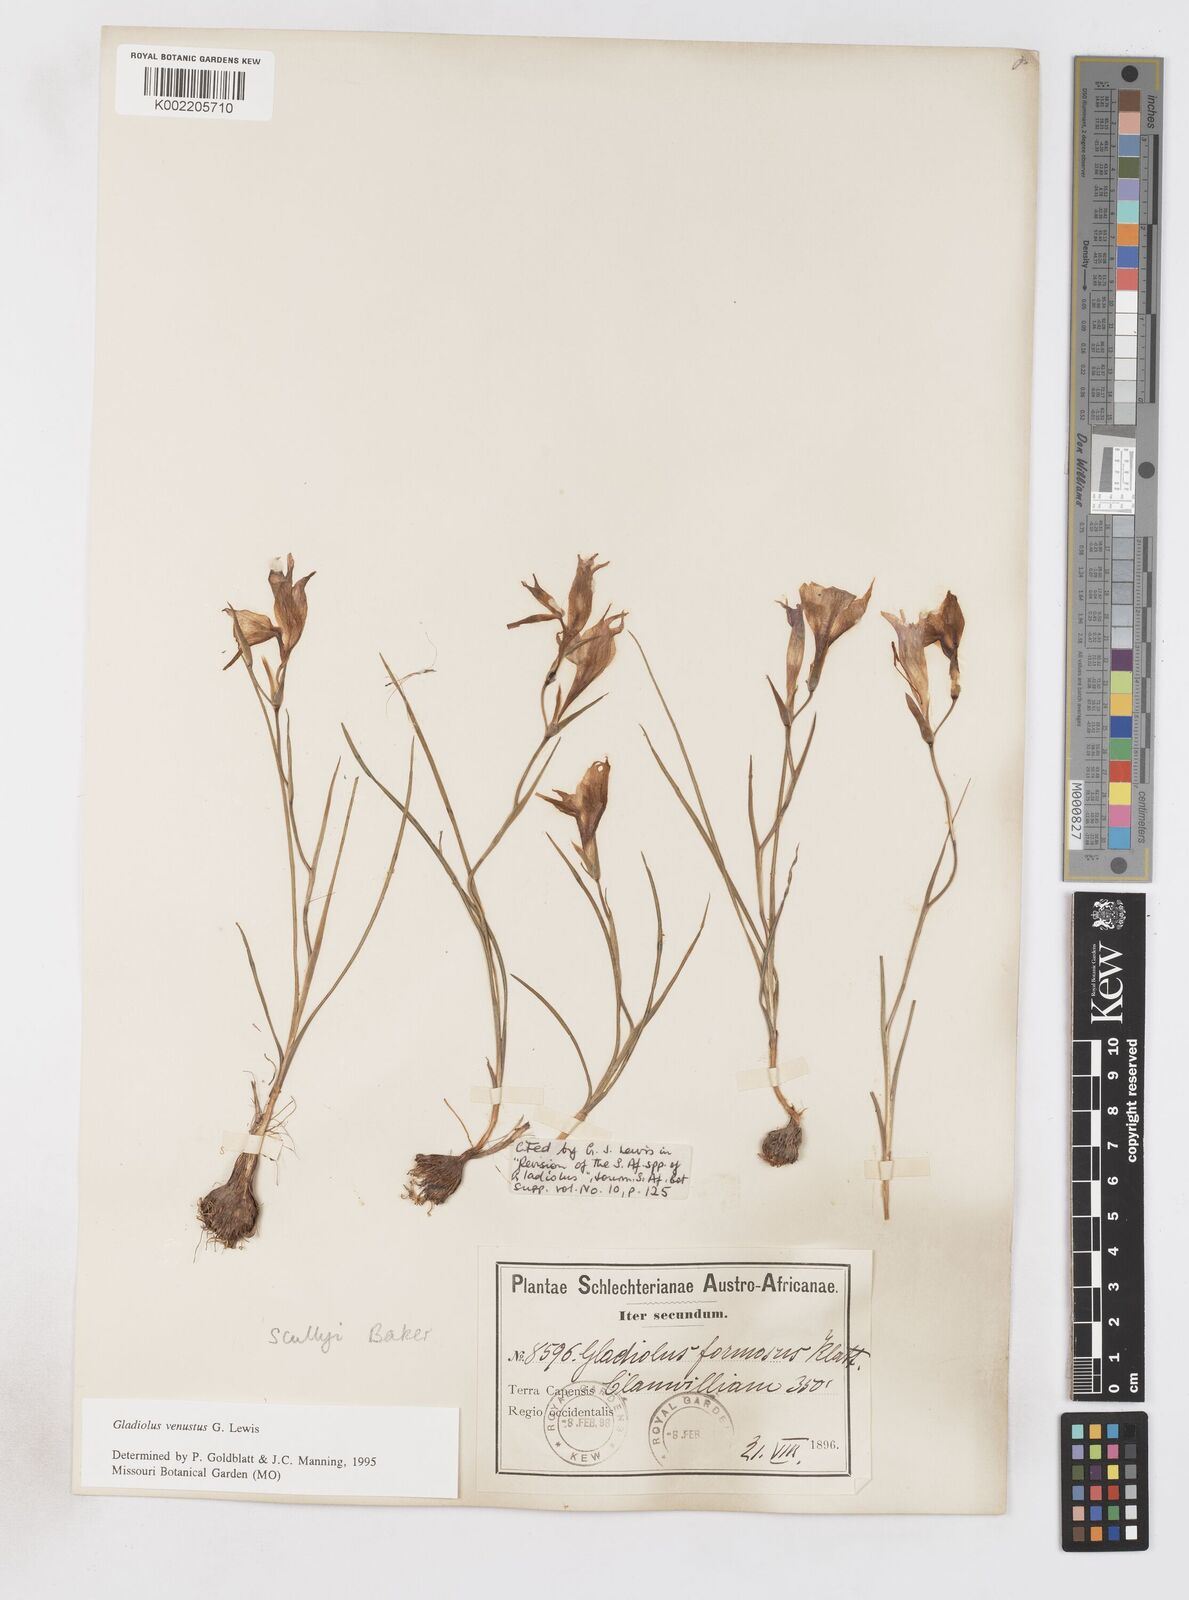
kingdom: Plantae
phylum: Tracheophyta
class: Liliopsida
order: Asparagales
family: Iridaceae
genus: Gladiolus
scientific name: Gladiolus venustus
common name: Purple kalkoentjie
